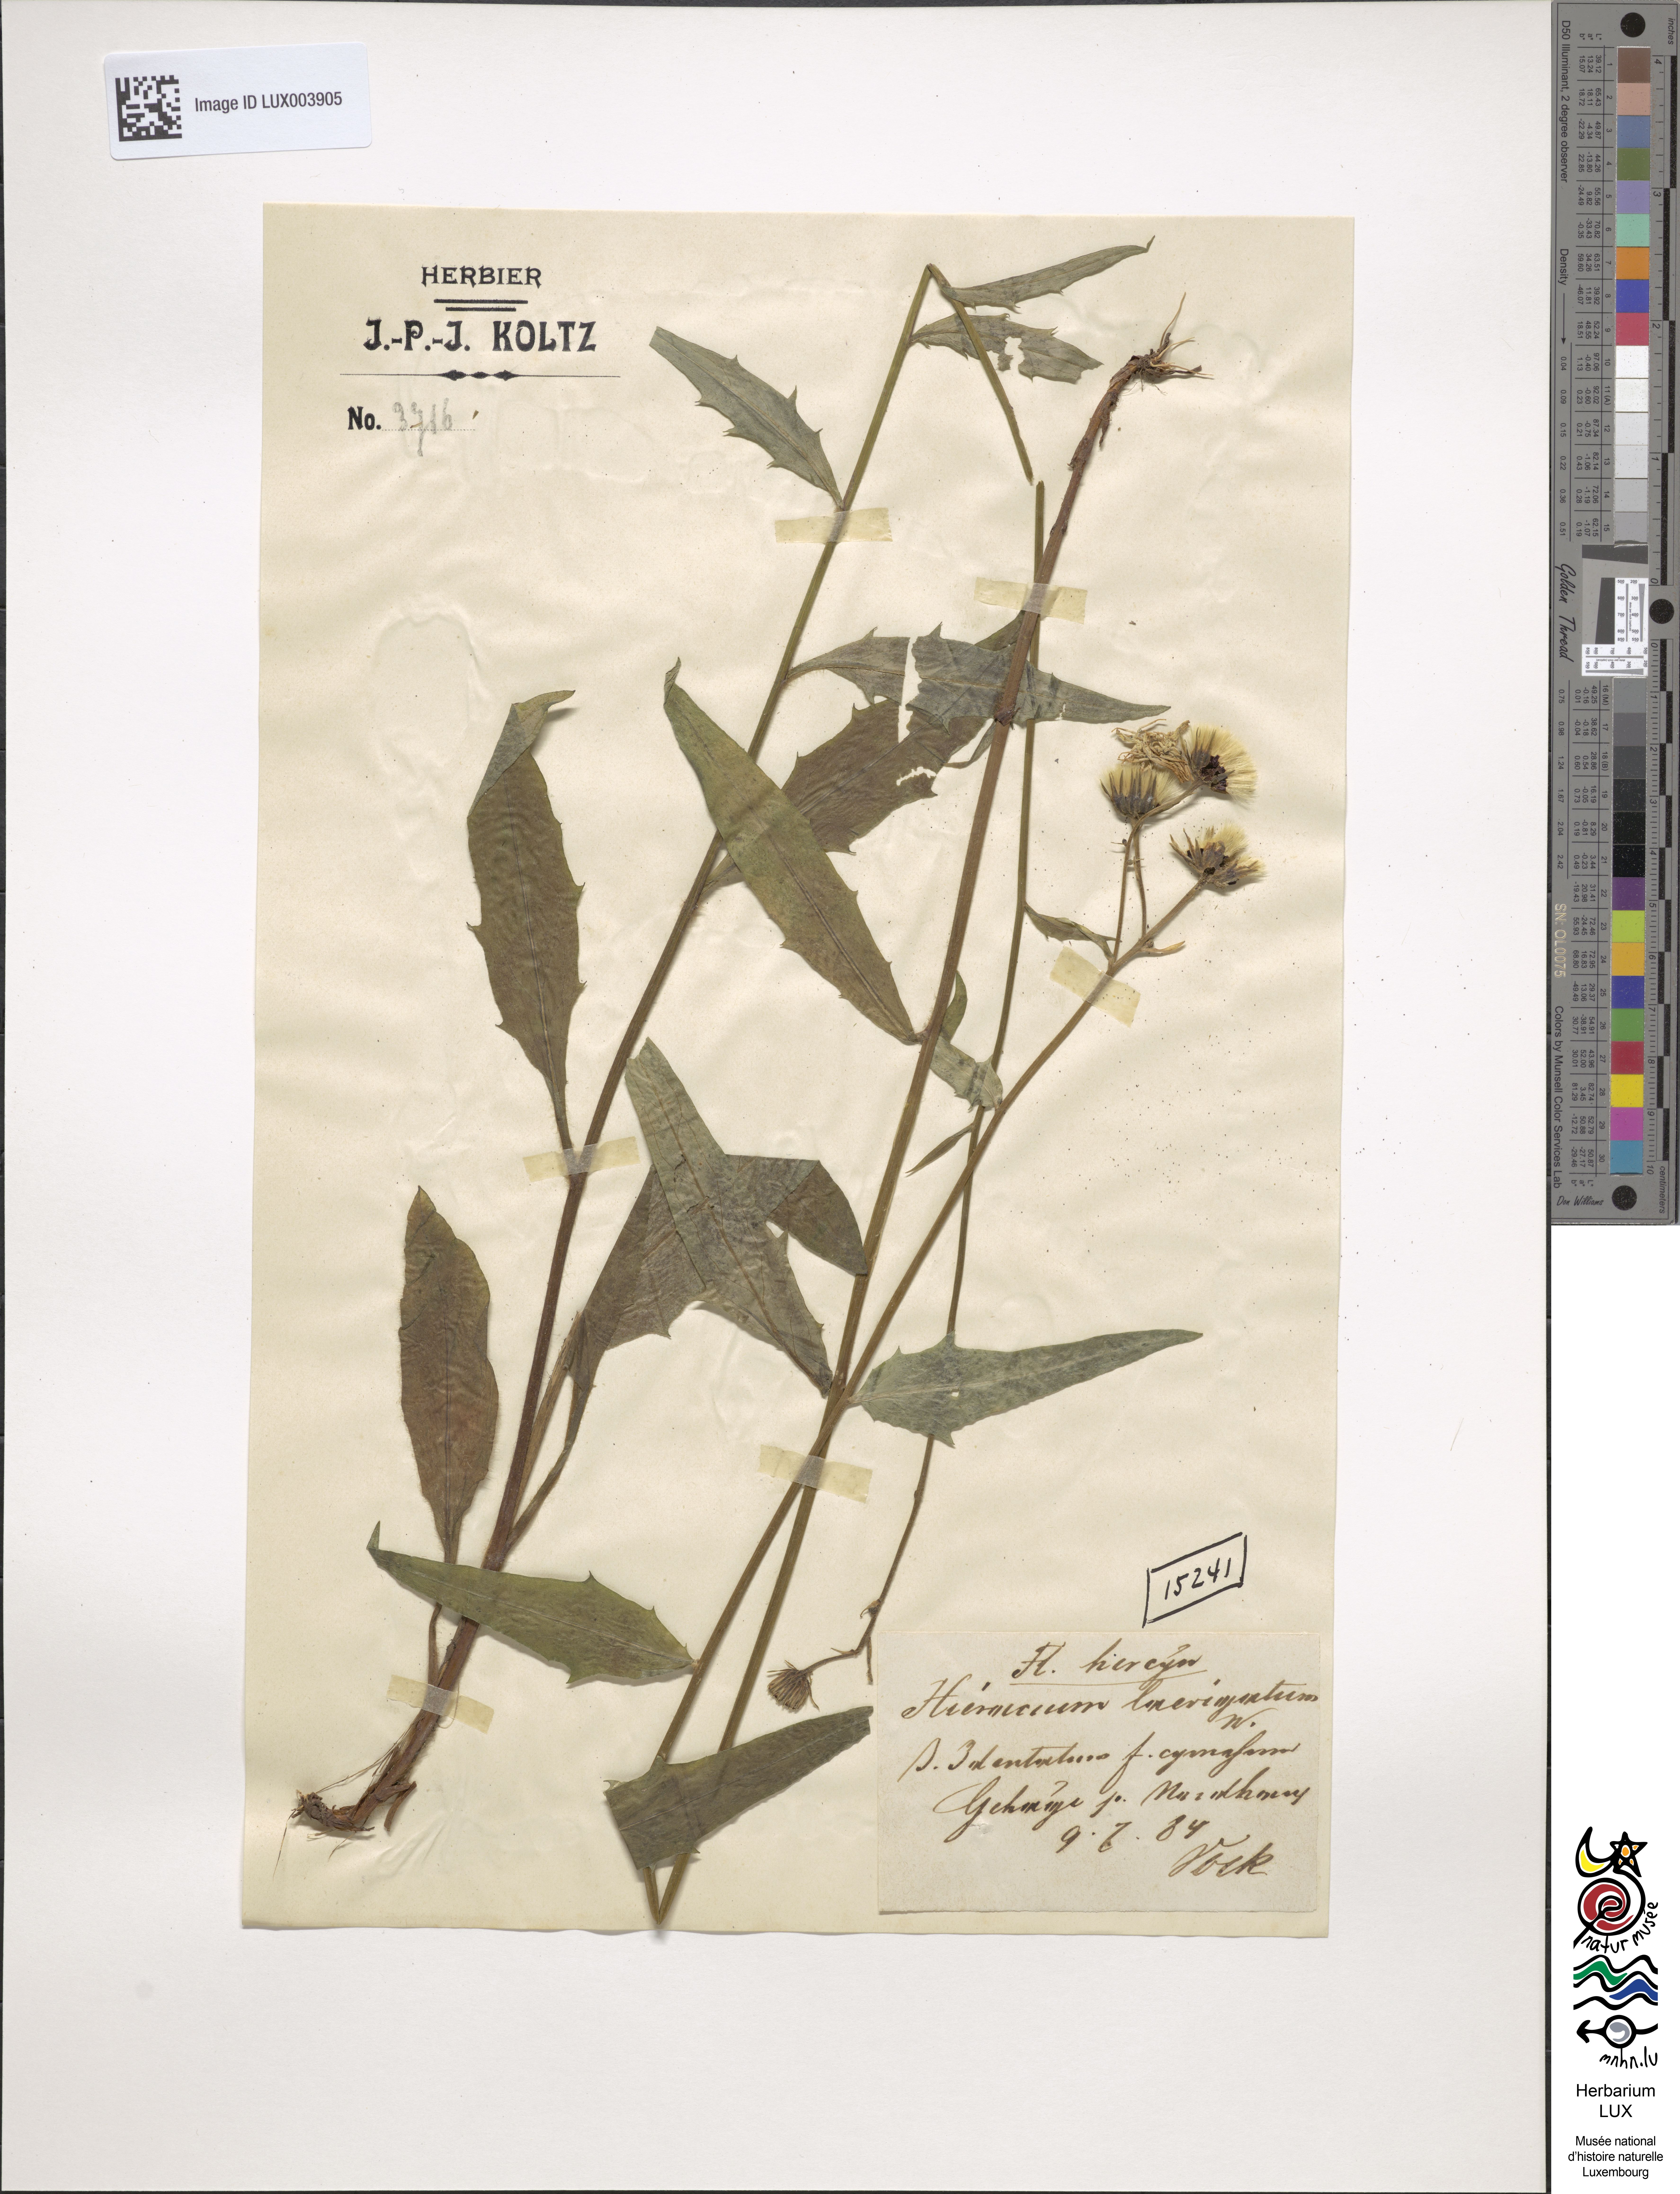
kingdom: Plantae
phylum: Tracheophyta
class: Magnoliopsida
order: Asterales
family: Asteraceae
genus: Hieracium
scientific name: Hieracium laevigatum
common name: Smooth hawkweed
